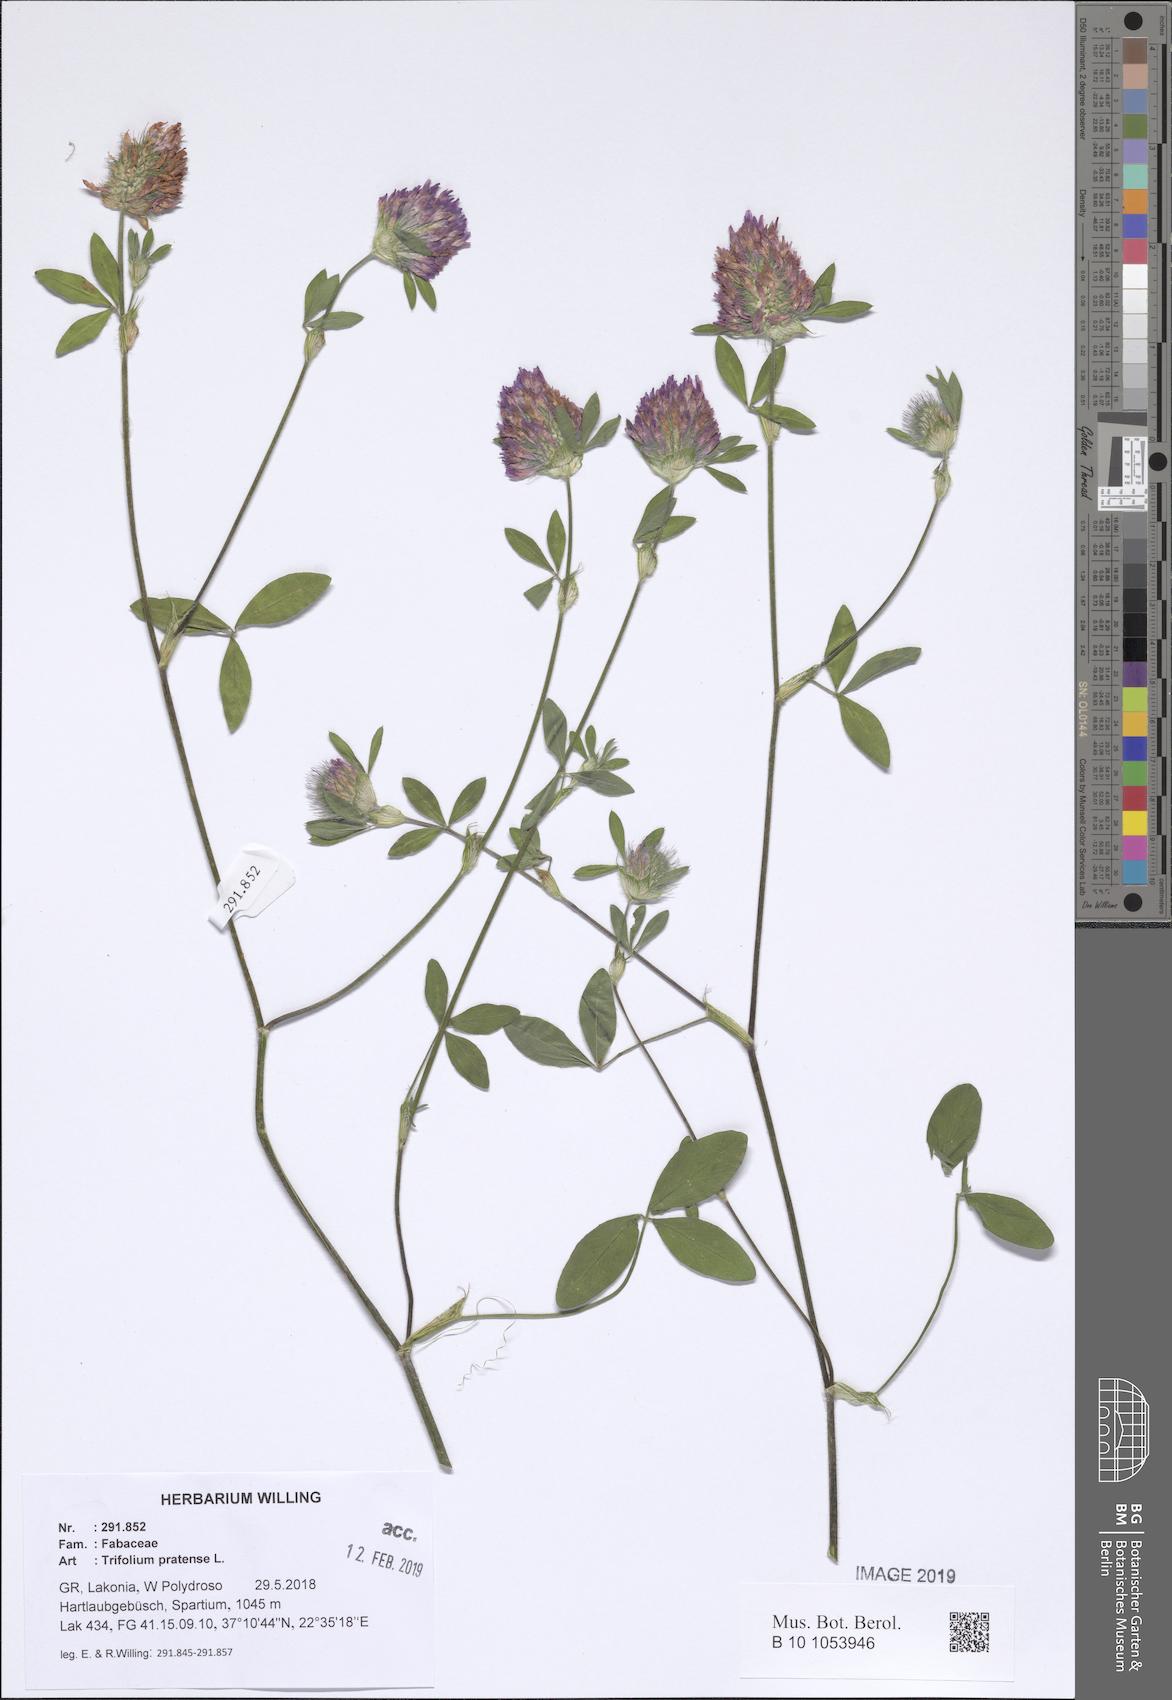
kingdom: Plantae
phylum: Tracheophyta
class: Magnoliopsida
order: Fabales
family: Fabaceae
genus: Trifolium
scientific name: Trifolium pratense
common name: Red clover
